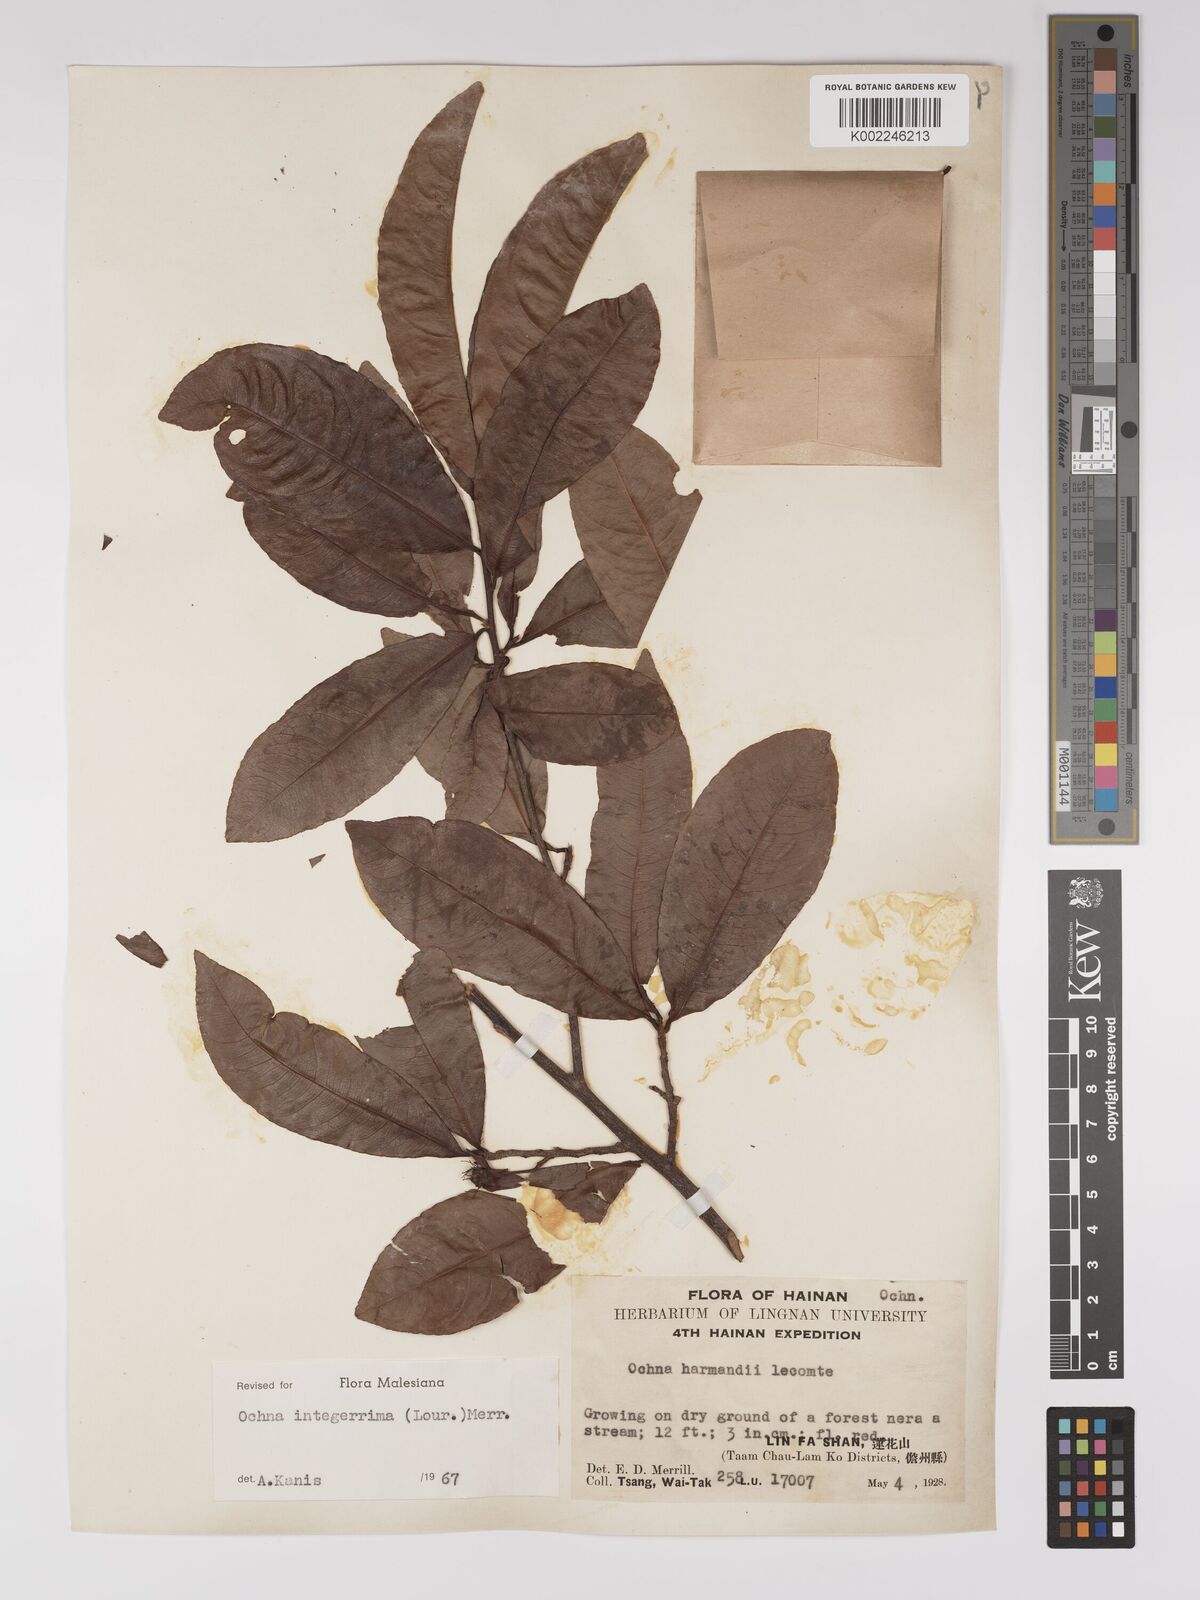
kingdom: Plantae
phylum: Tracheophyta
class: Magnoliopsida
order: Malpighiales
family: Ochnaceae
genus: Ochna
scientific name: Ochna integerrima
